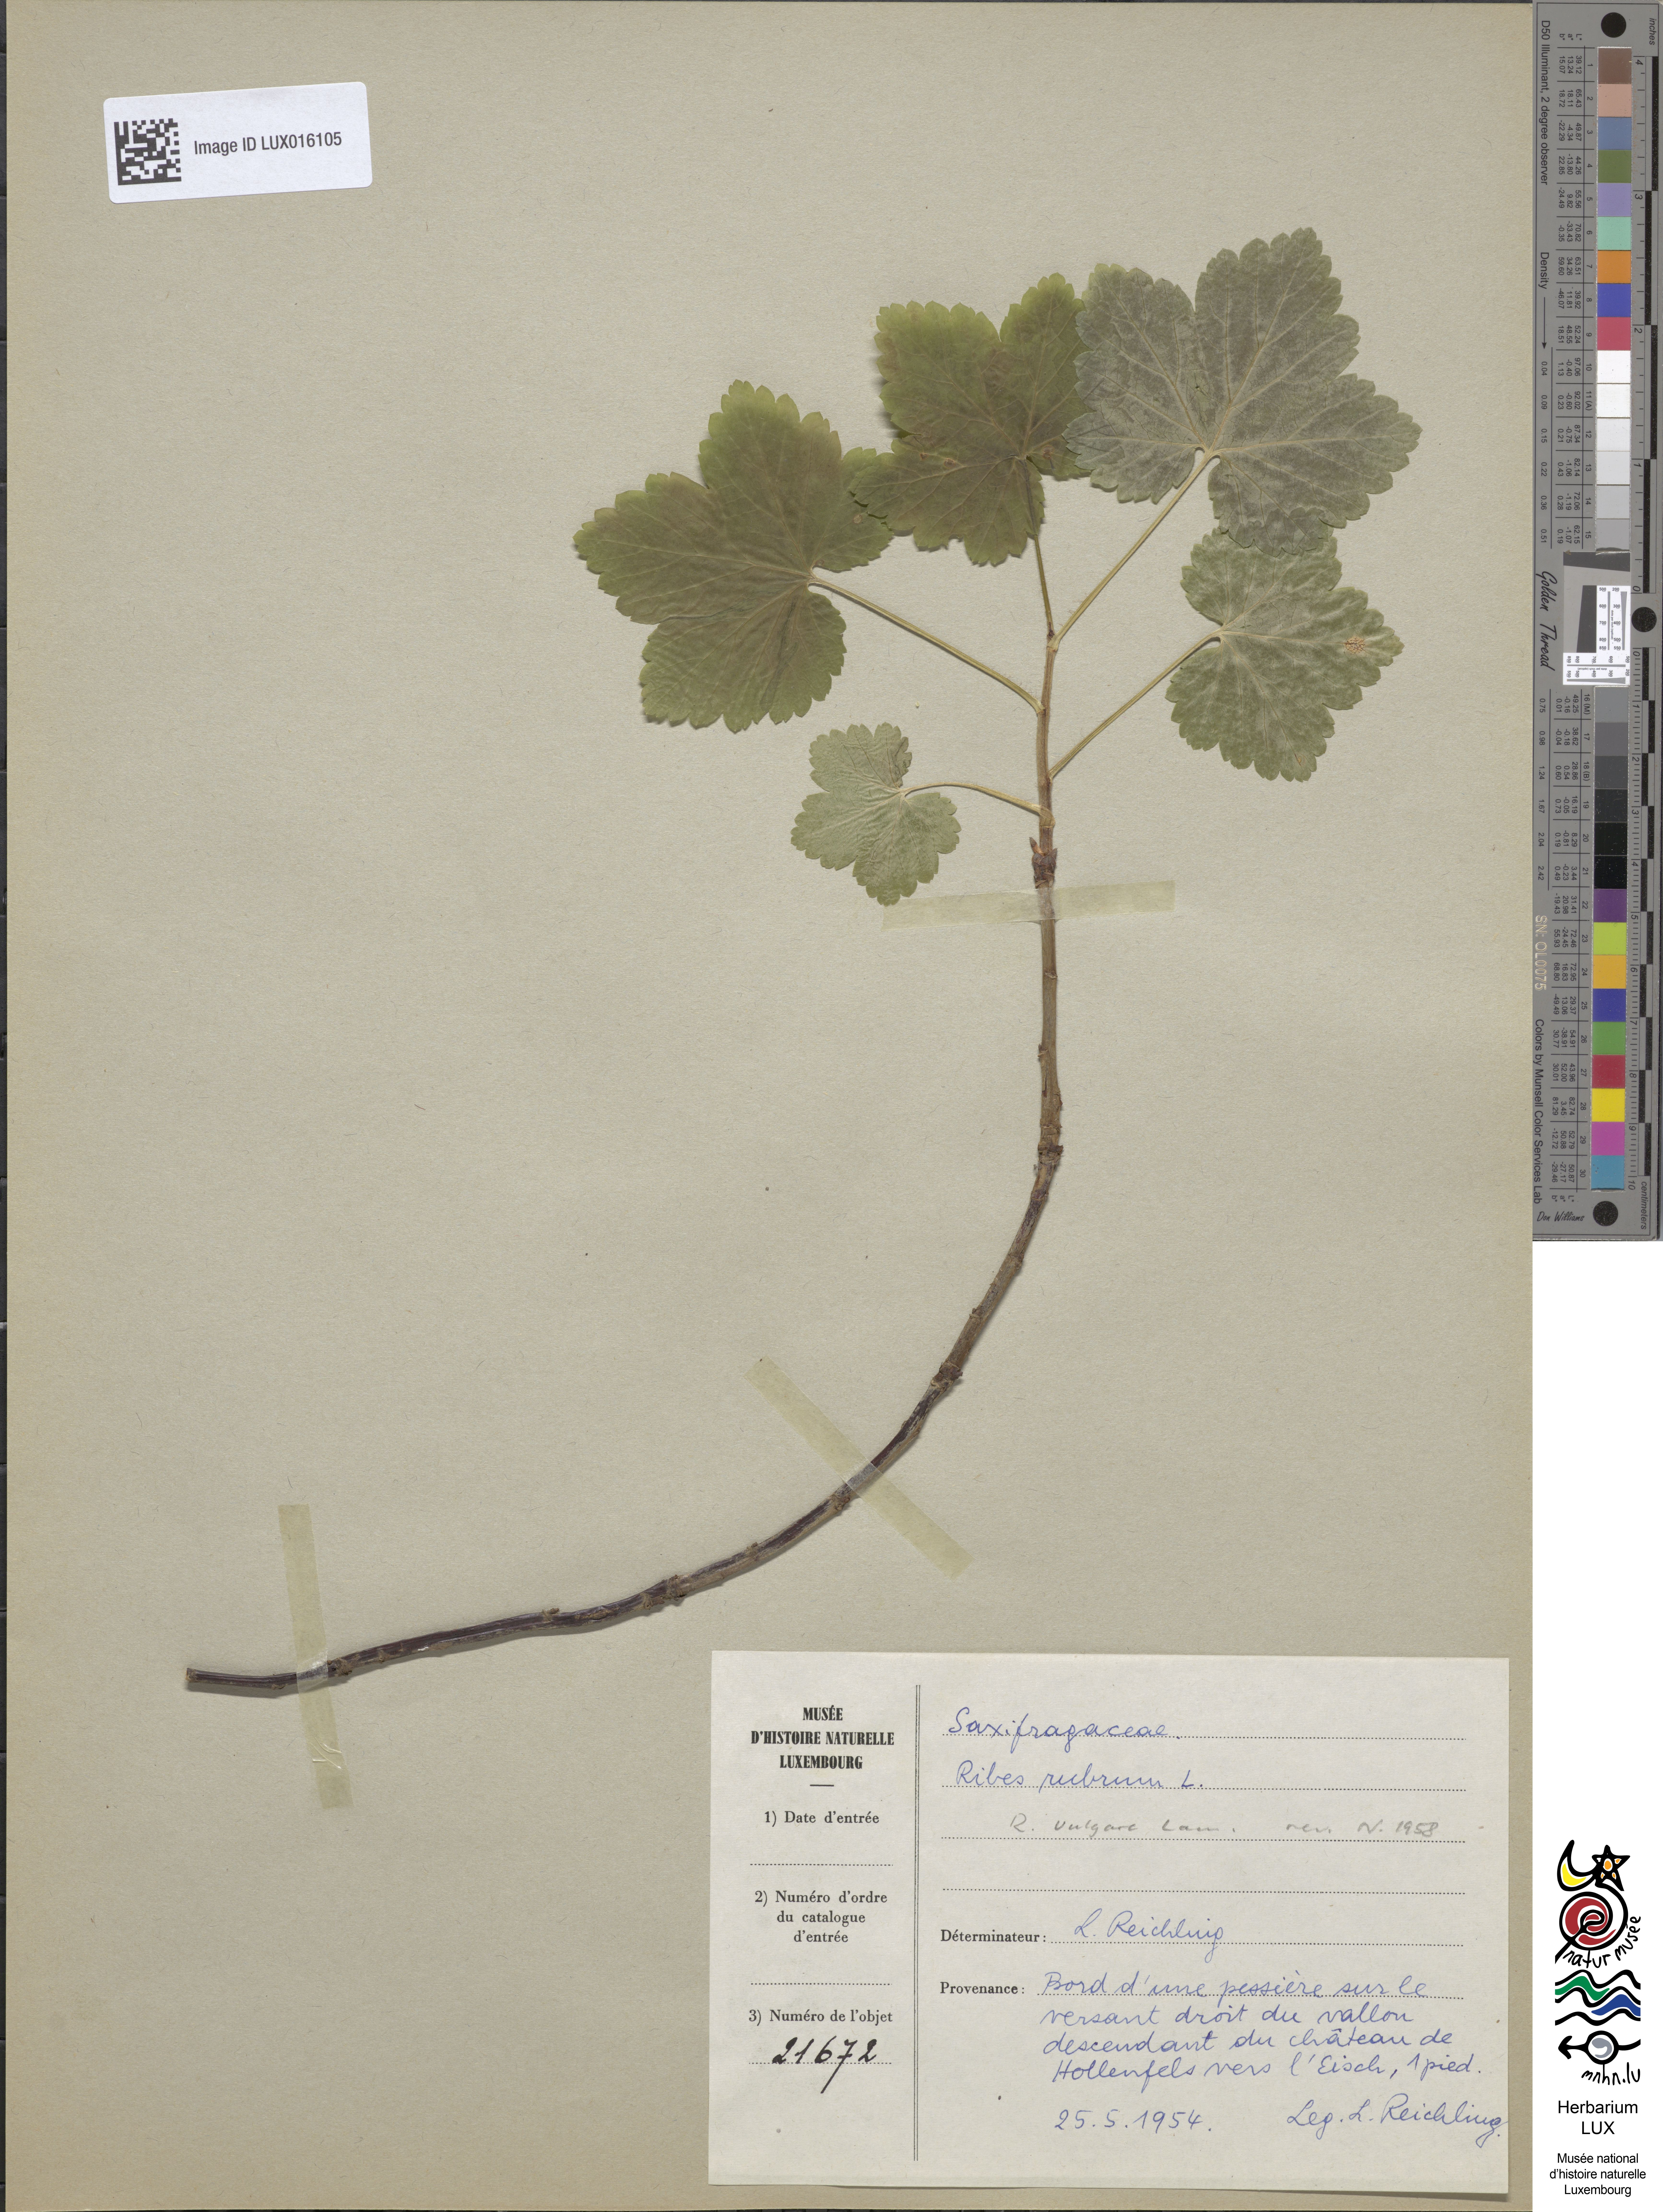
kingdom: Plantae
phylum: Tracheophyta
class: Magnoliopsida
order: Saxifragales
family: Grossulariaceae
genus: Ribes
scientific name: Ribes rubrum
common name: Red currant
